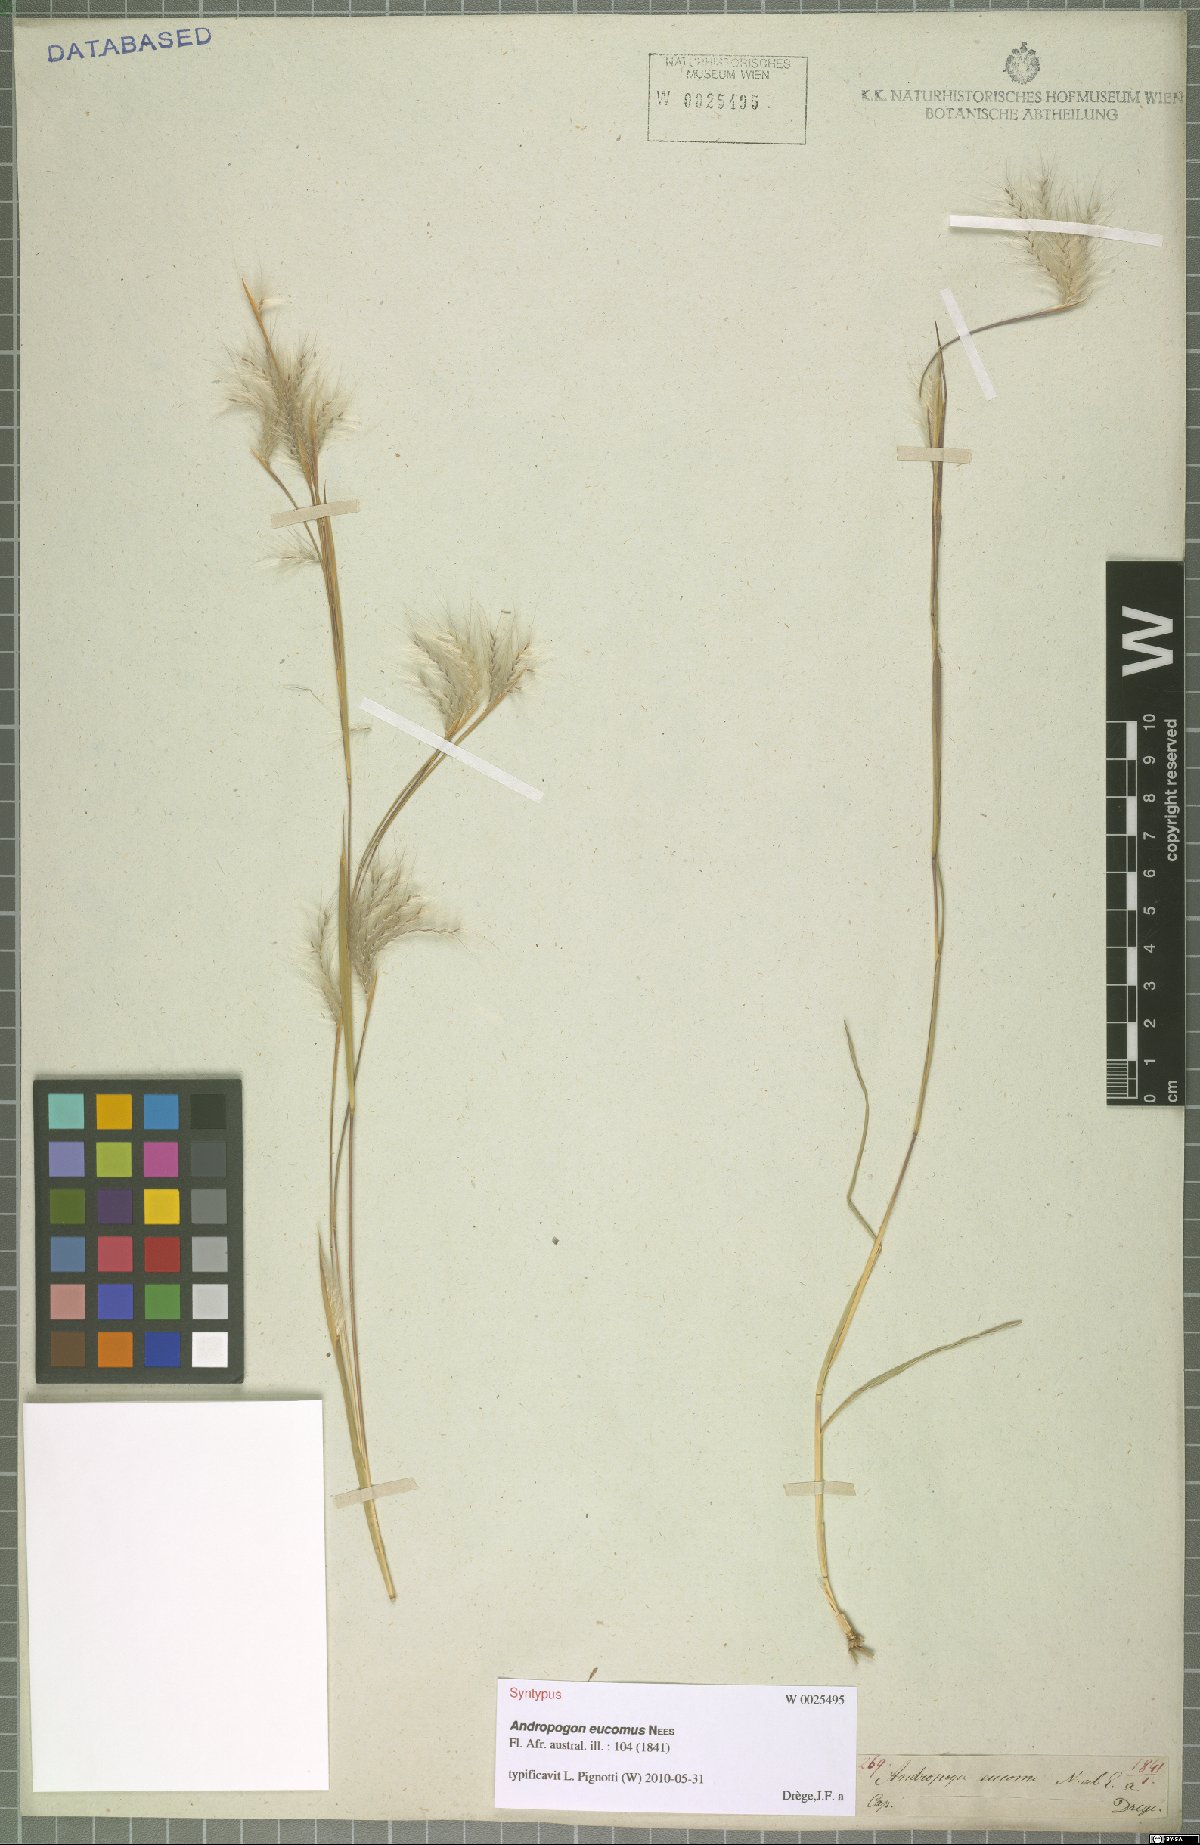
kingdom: Plantae
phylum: Tracheophyta
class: Liliopsida
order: Poales
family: Poaceae
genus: Andropogon
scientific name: Andropogon eucomus
